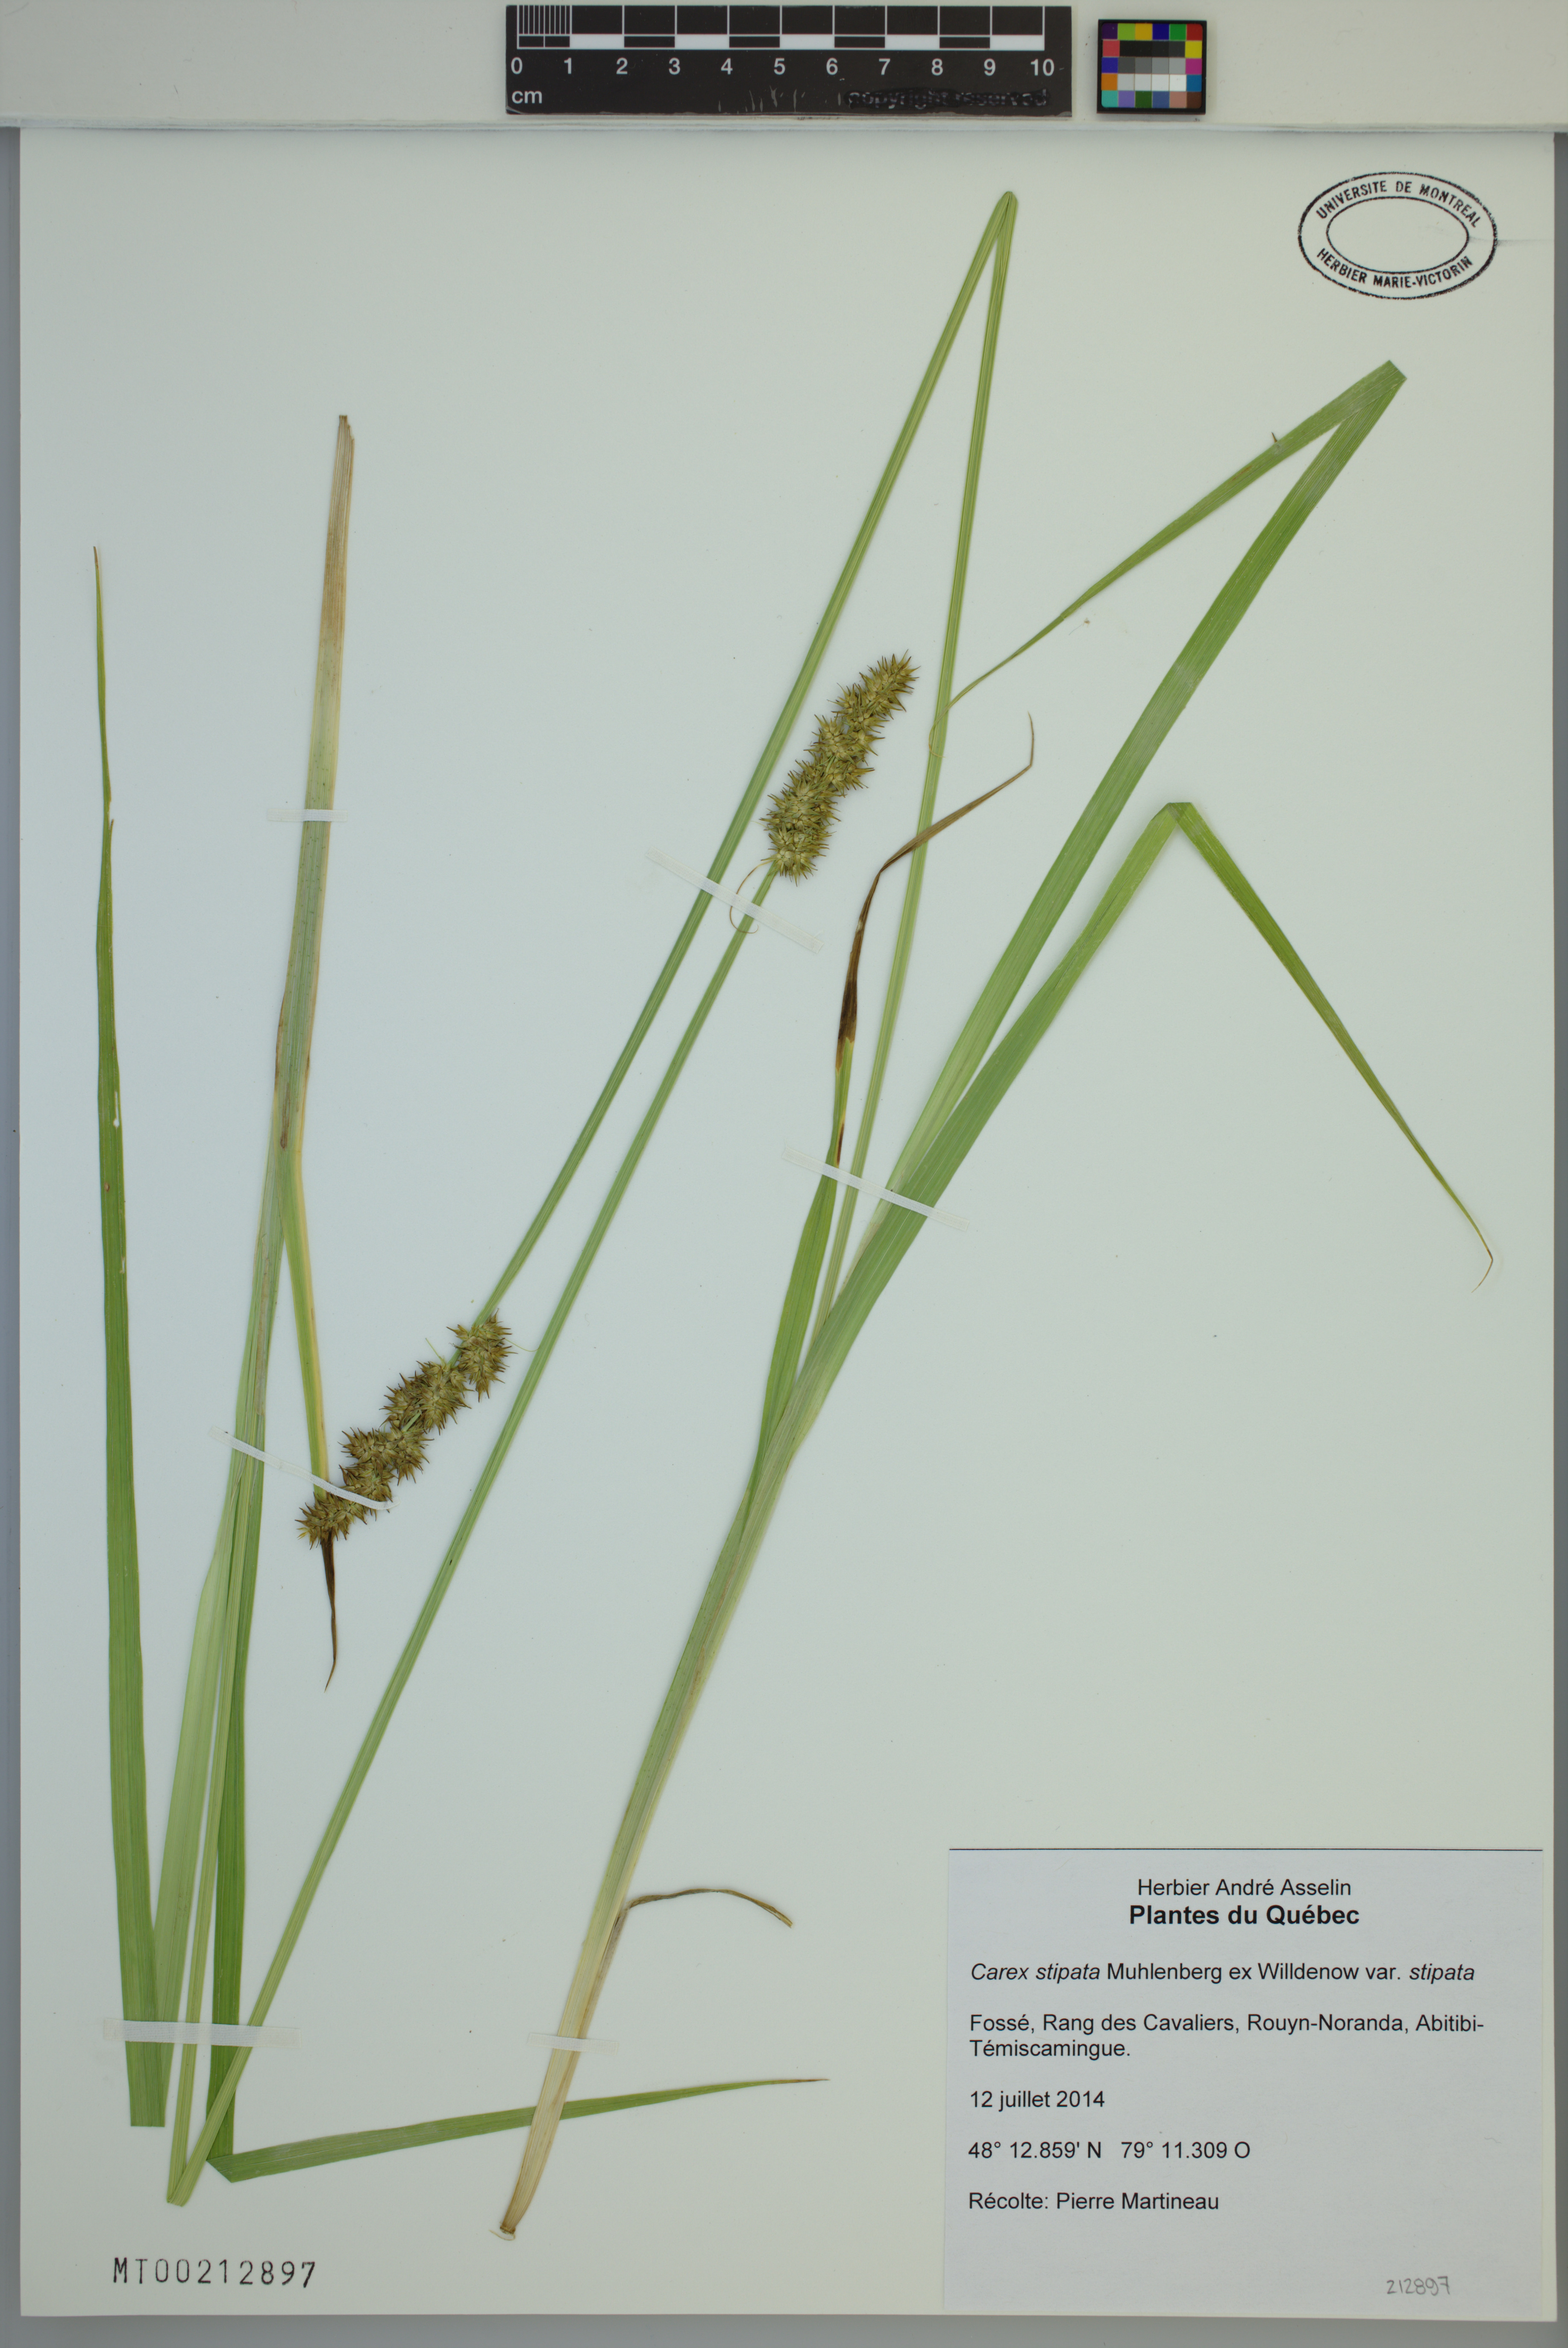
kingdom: Plantae
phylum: Tracheophyta
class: Liliopsida
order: Poales
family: Cyperaceae
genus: Carex
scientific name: Carex stipata
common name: Awl-fruited sedge
